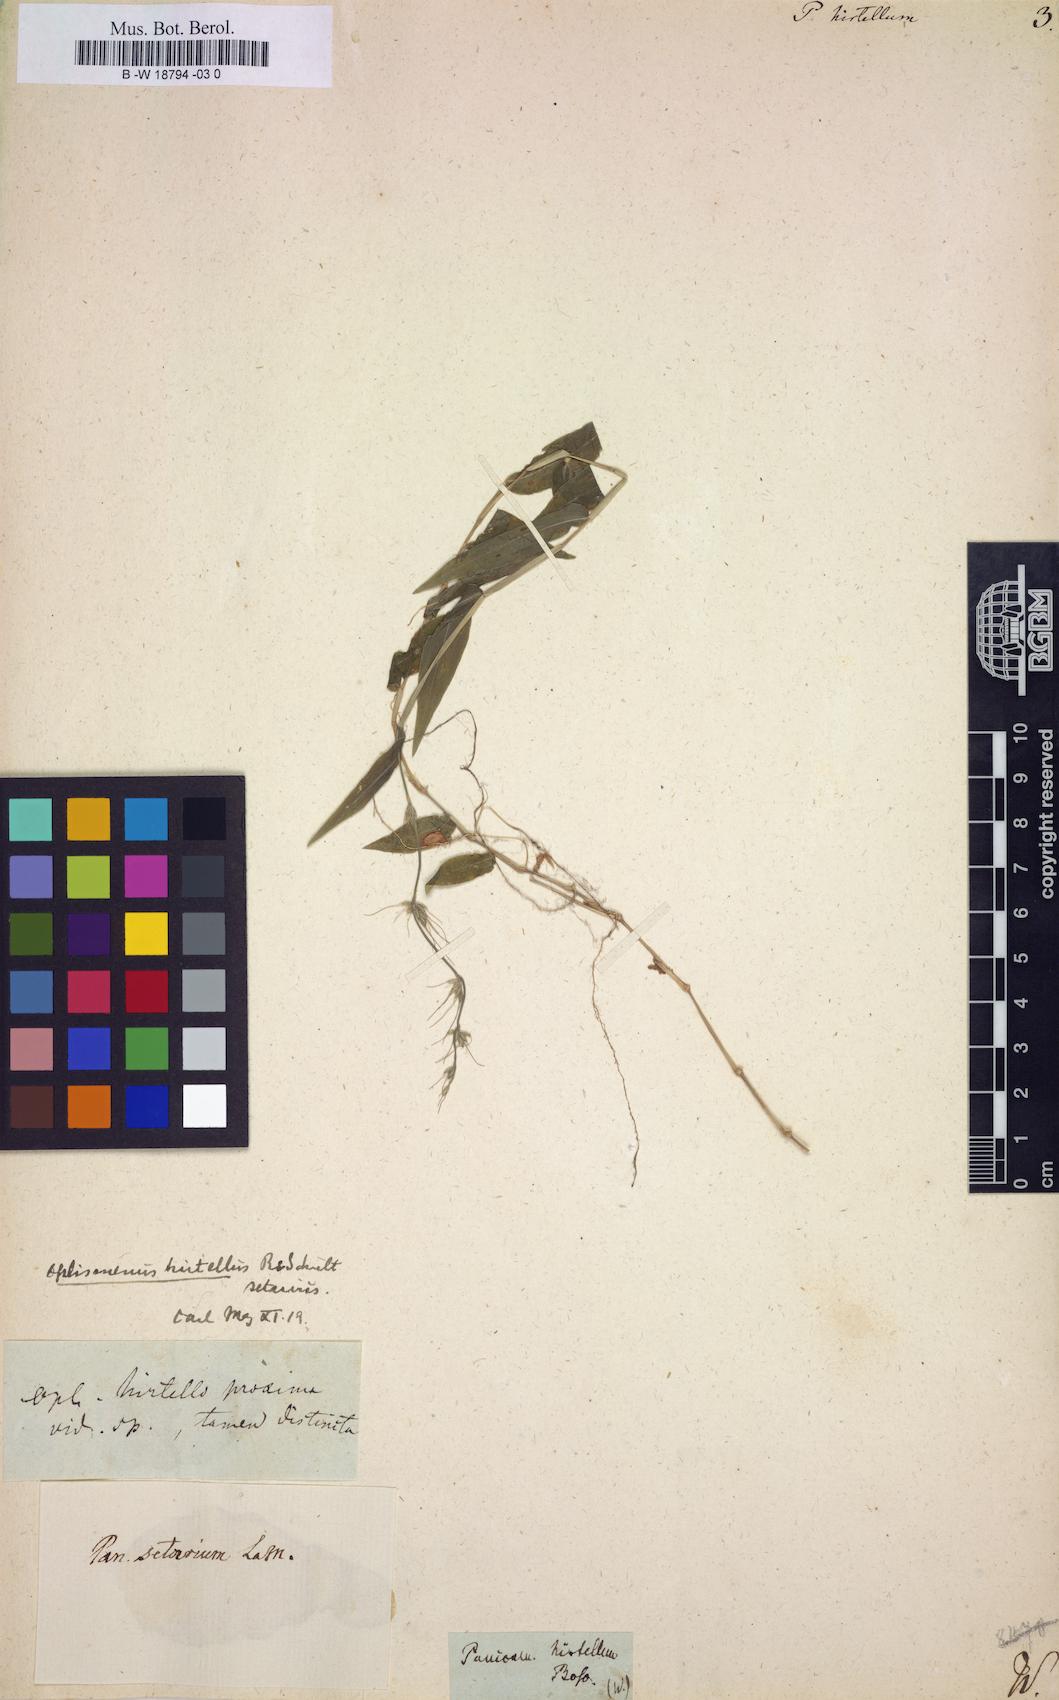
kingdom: Plantae
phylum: Tracheophyta
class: Liliopsida
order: Poales
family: Poaceae
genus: Panicum
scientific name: Panicum hirtellum
